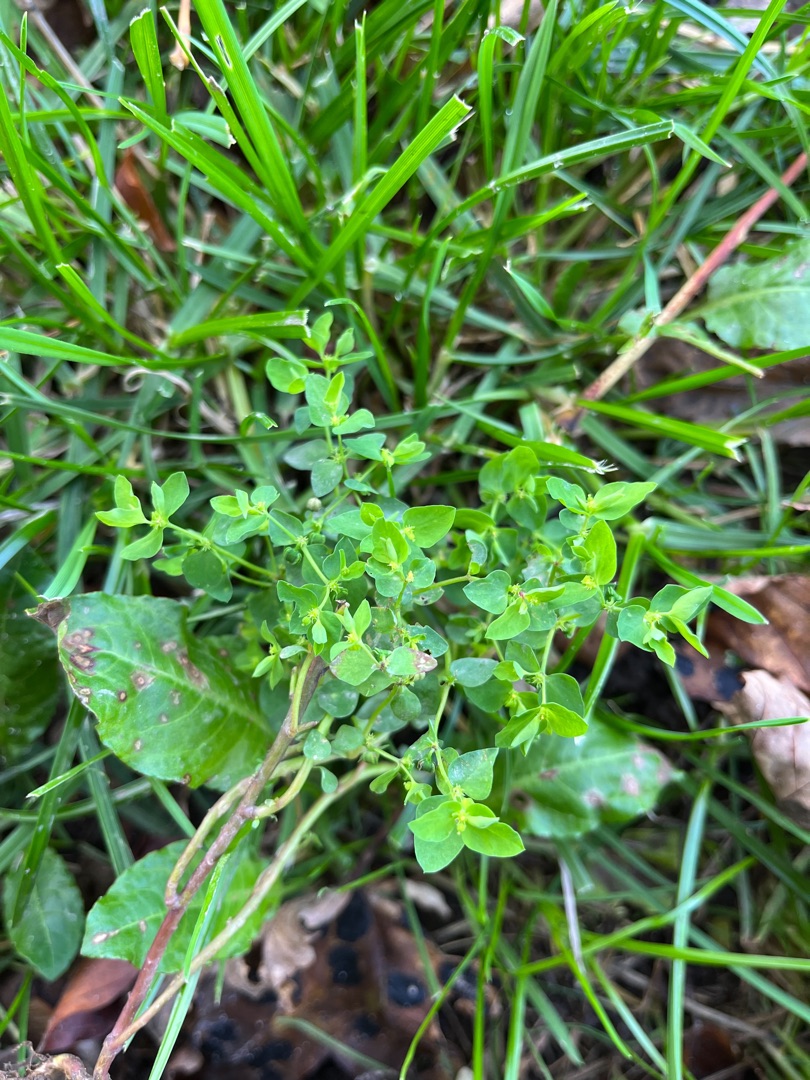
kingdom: Plantae
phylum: Tracheophyta
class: Magnoliopsida
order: Malpighiales
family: Euphorbiaceae
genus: Euphorbia
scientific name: Euphorbia peplus
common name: Gaffel-vortemælk
